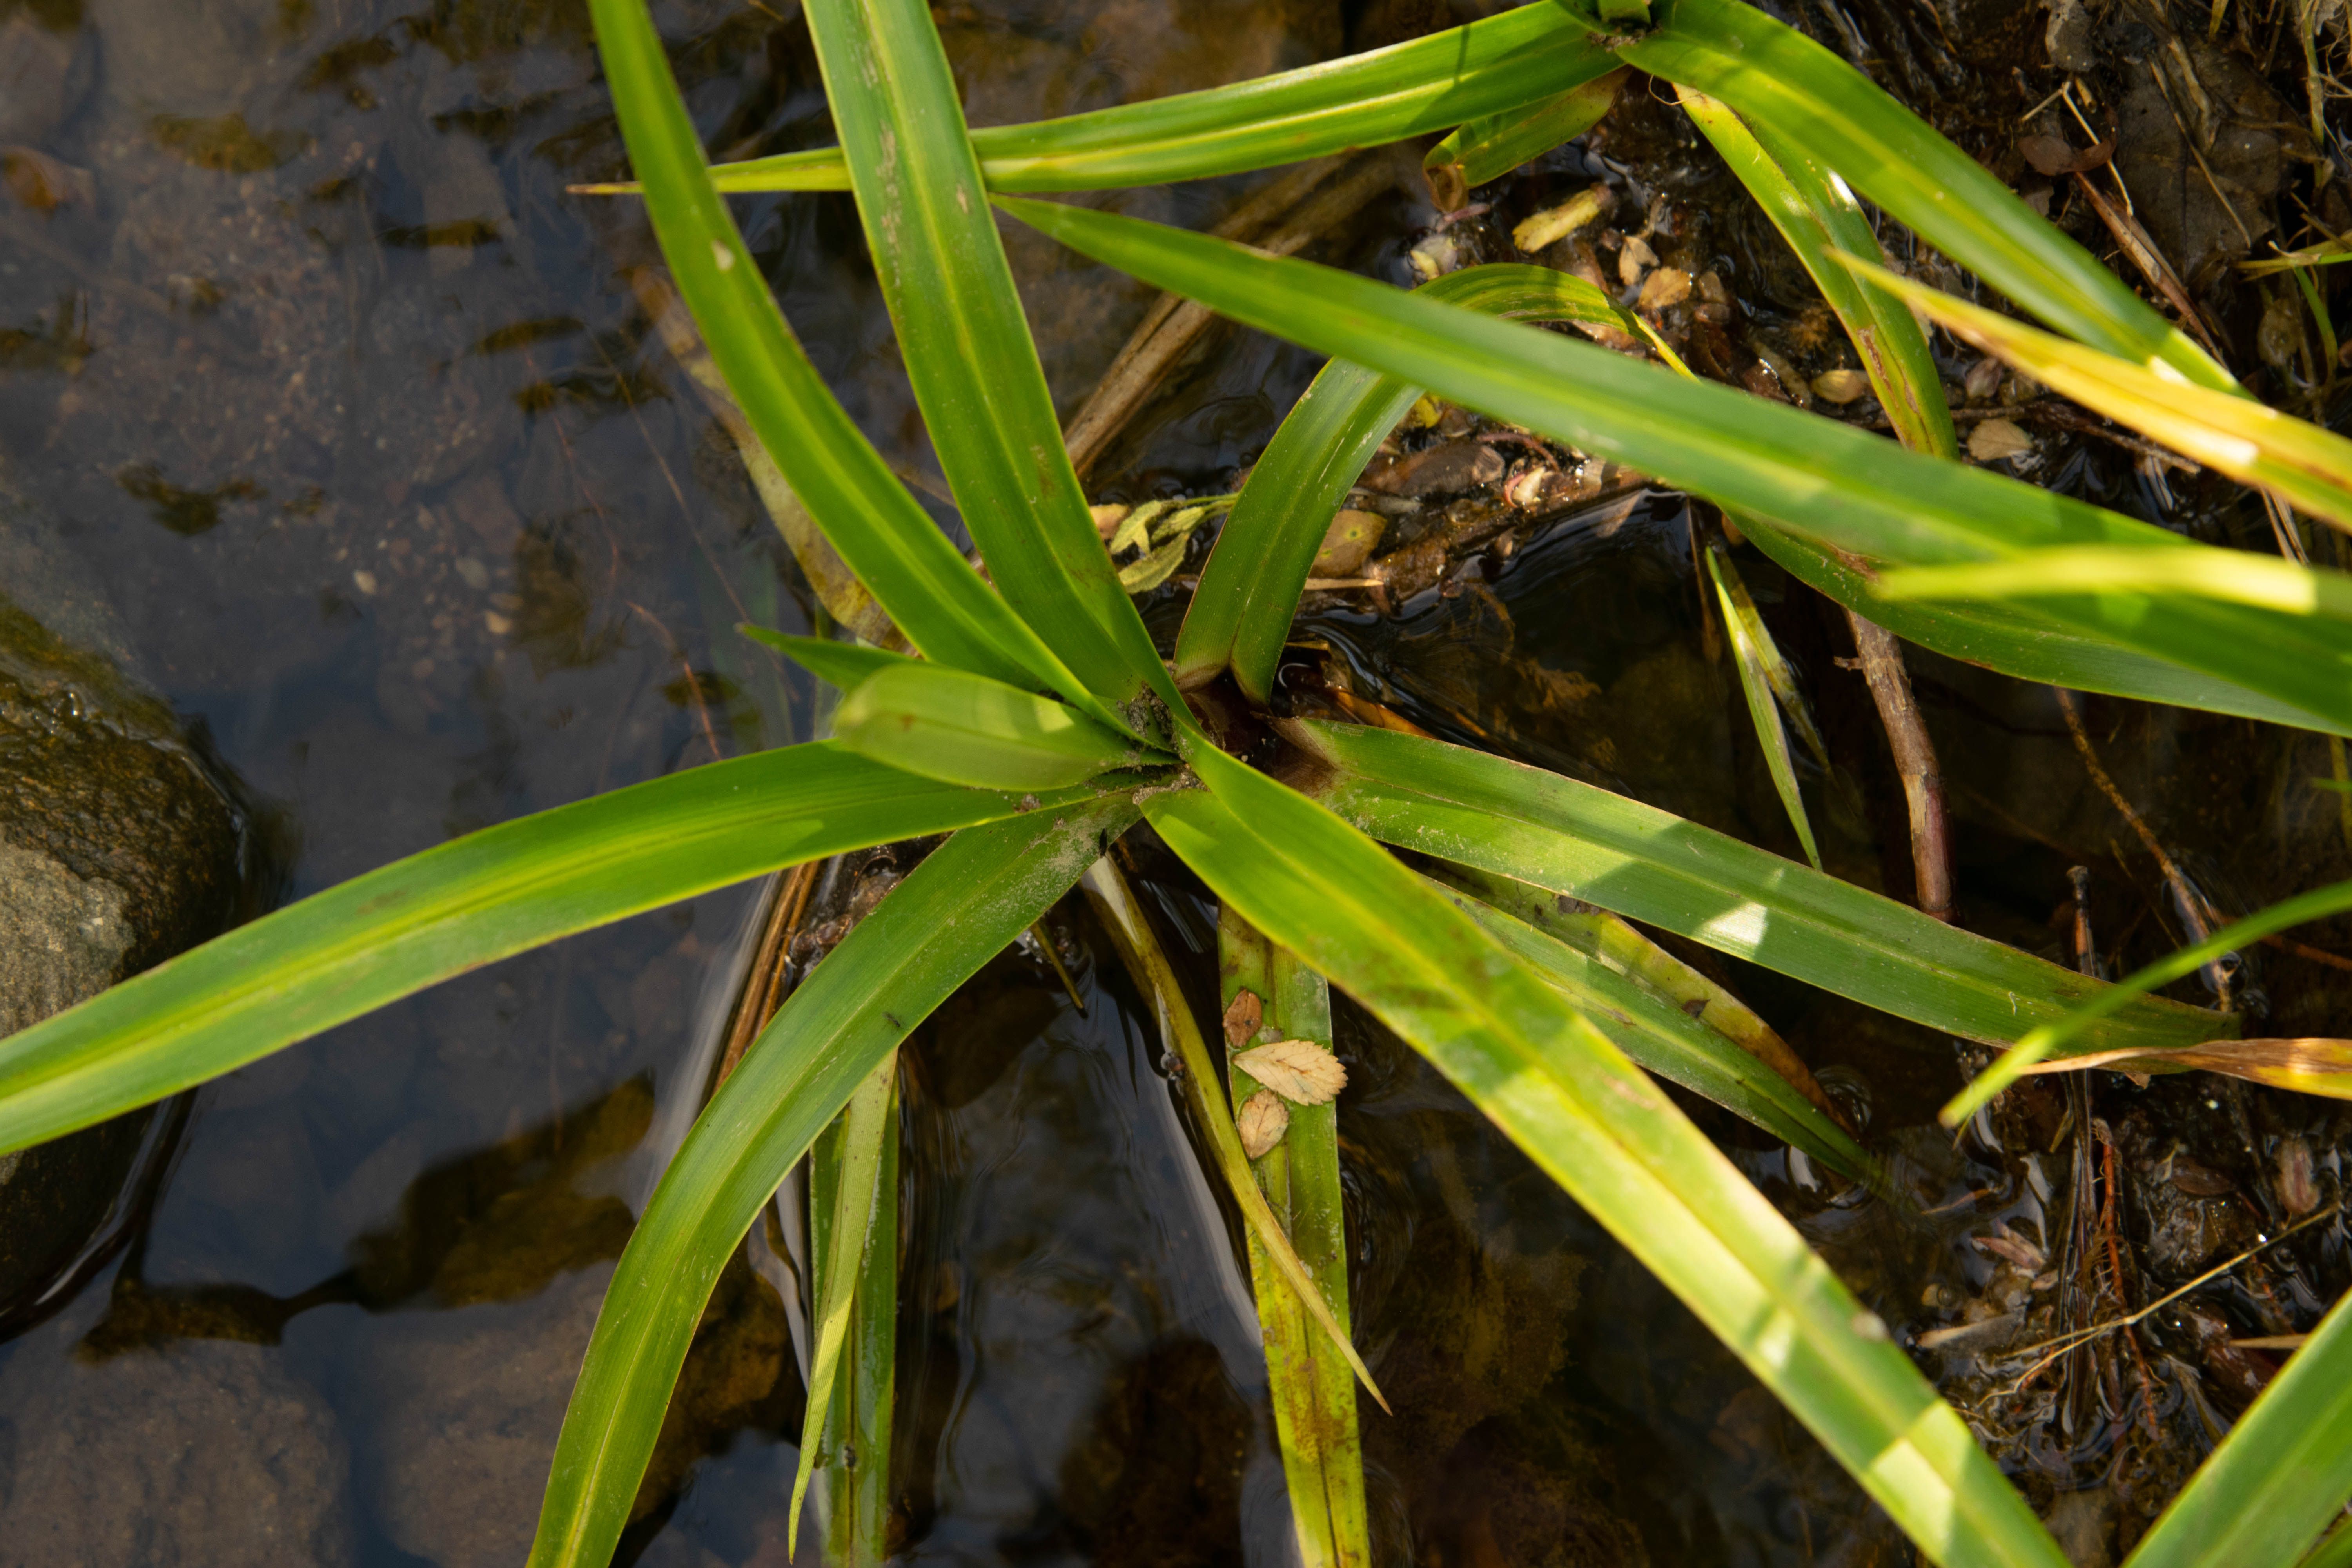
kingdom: Plantae
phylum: Tracheophyta
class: Liliopsida
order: Poales
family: Cyperaceae
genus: Scirpus
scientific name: Scirpus microcarpus
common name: Panicled bulrush
